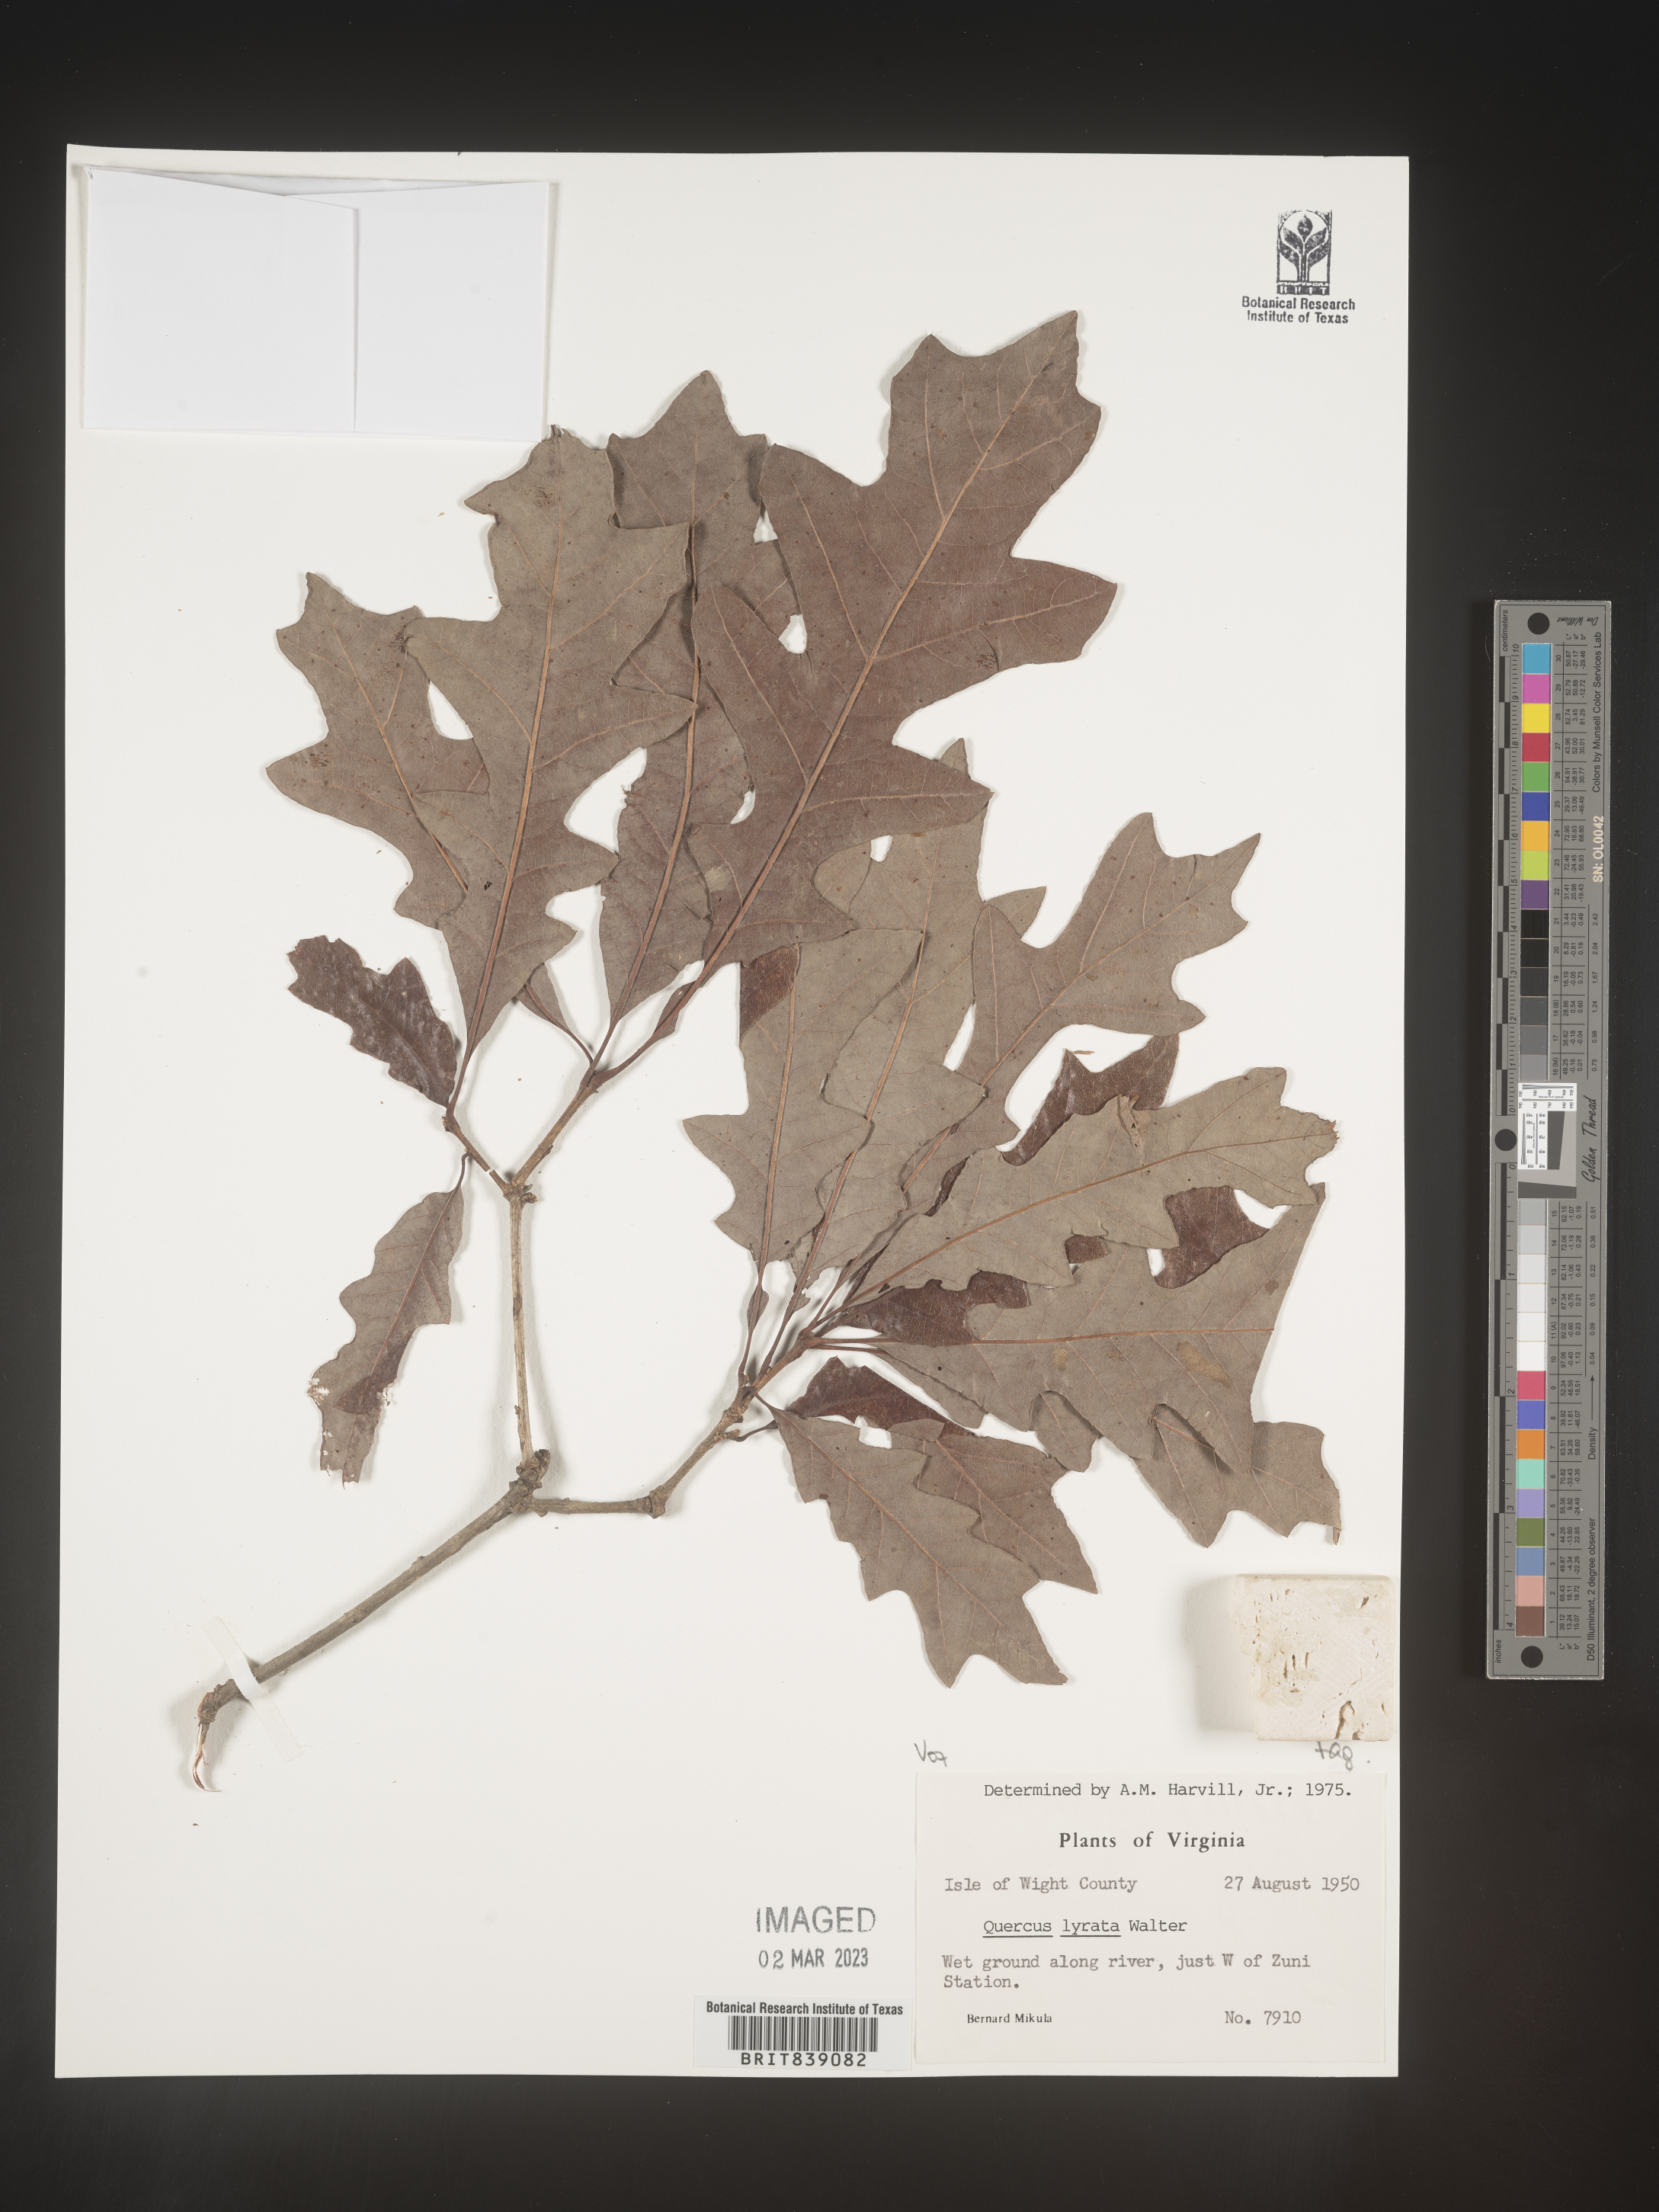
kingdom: Plantae
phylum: Tracheophyta
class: Magnoliopsida
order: Fagales
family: Fagaceae
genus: Quercus
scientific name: Quercus lyrata
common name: Overcup oak
